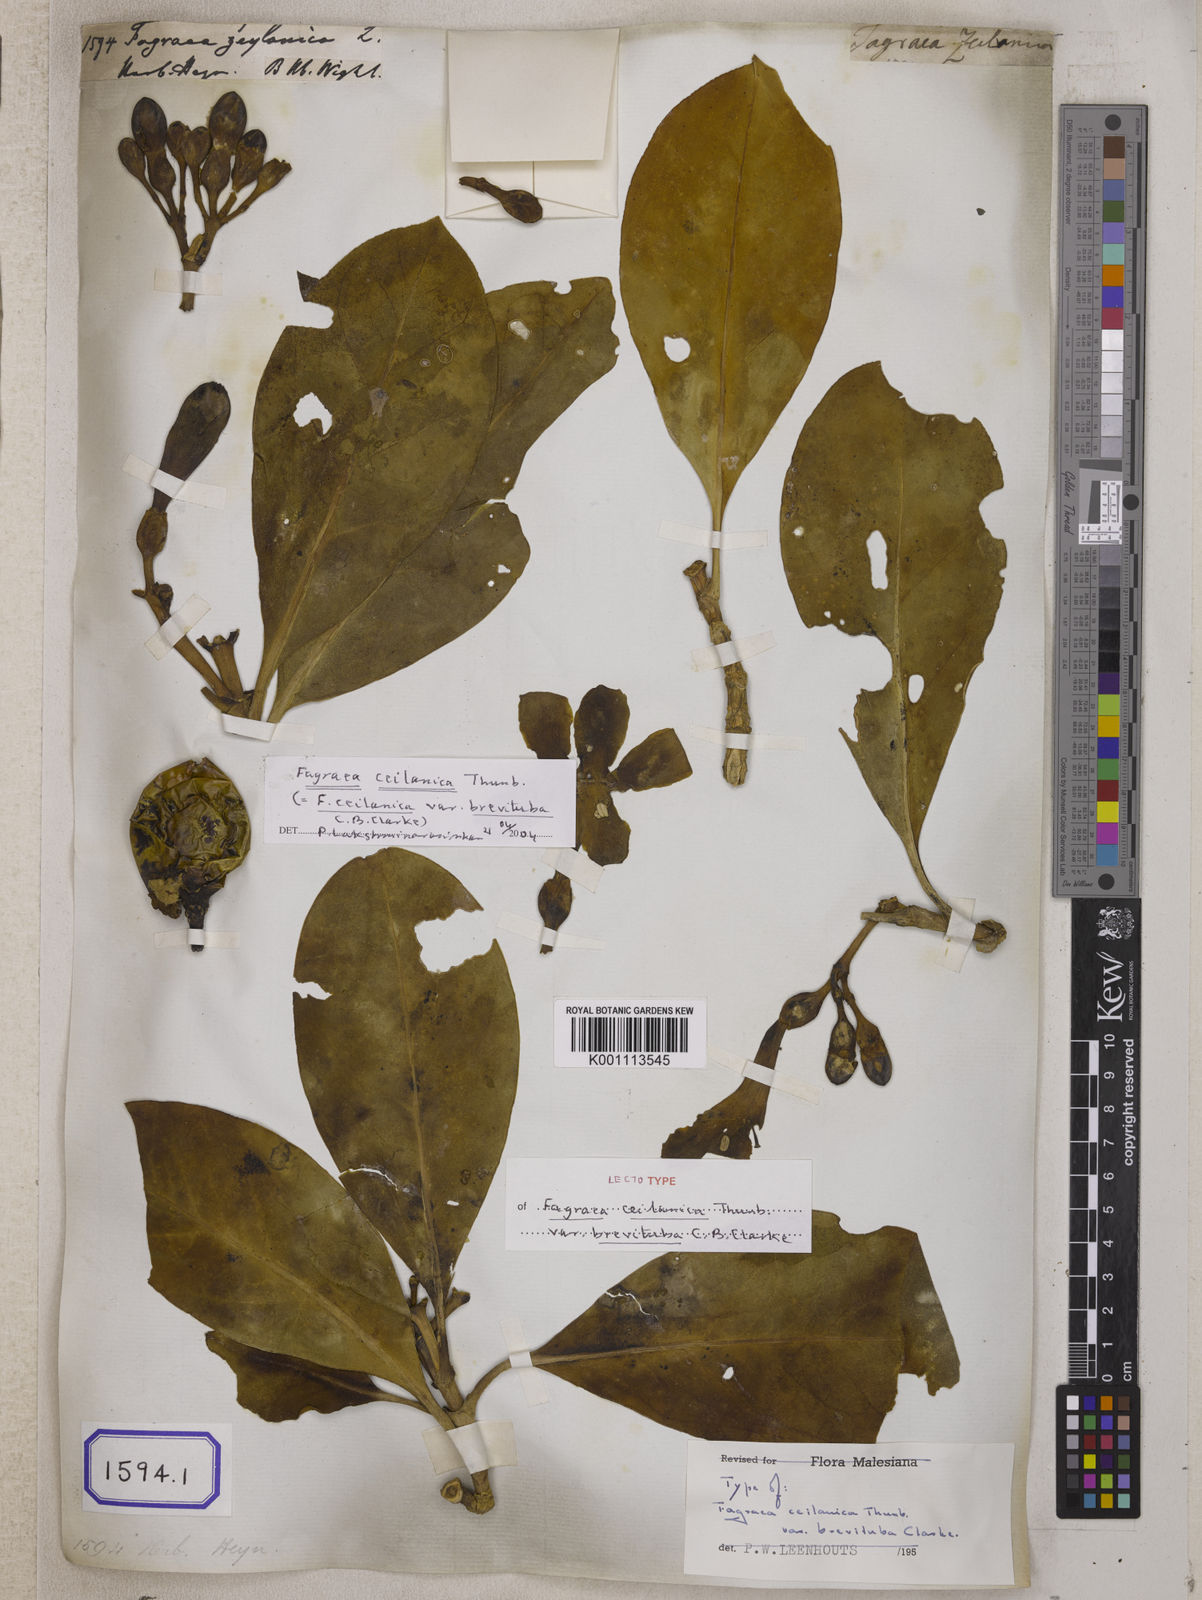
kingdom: Plantae
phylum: Tracheophyta
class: Magnoliopsida
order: Gentianales
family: Gentianaceae
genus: Fagraea
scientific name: Fagraea
